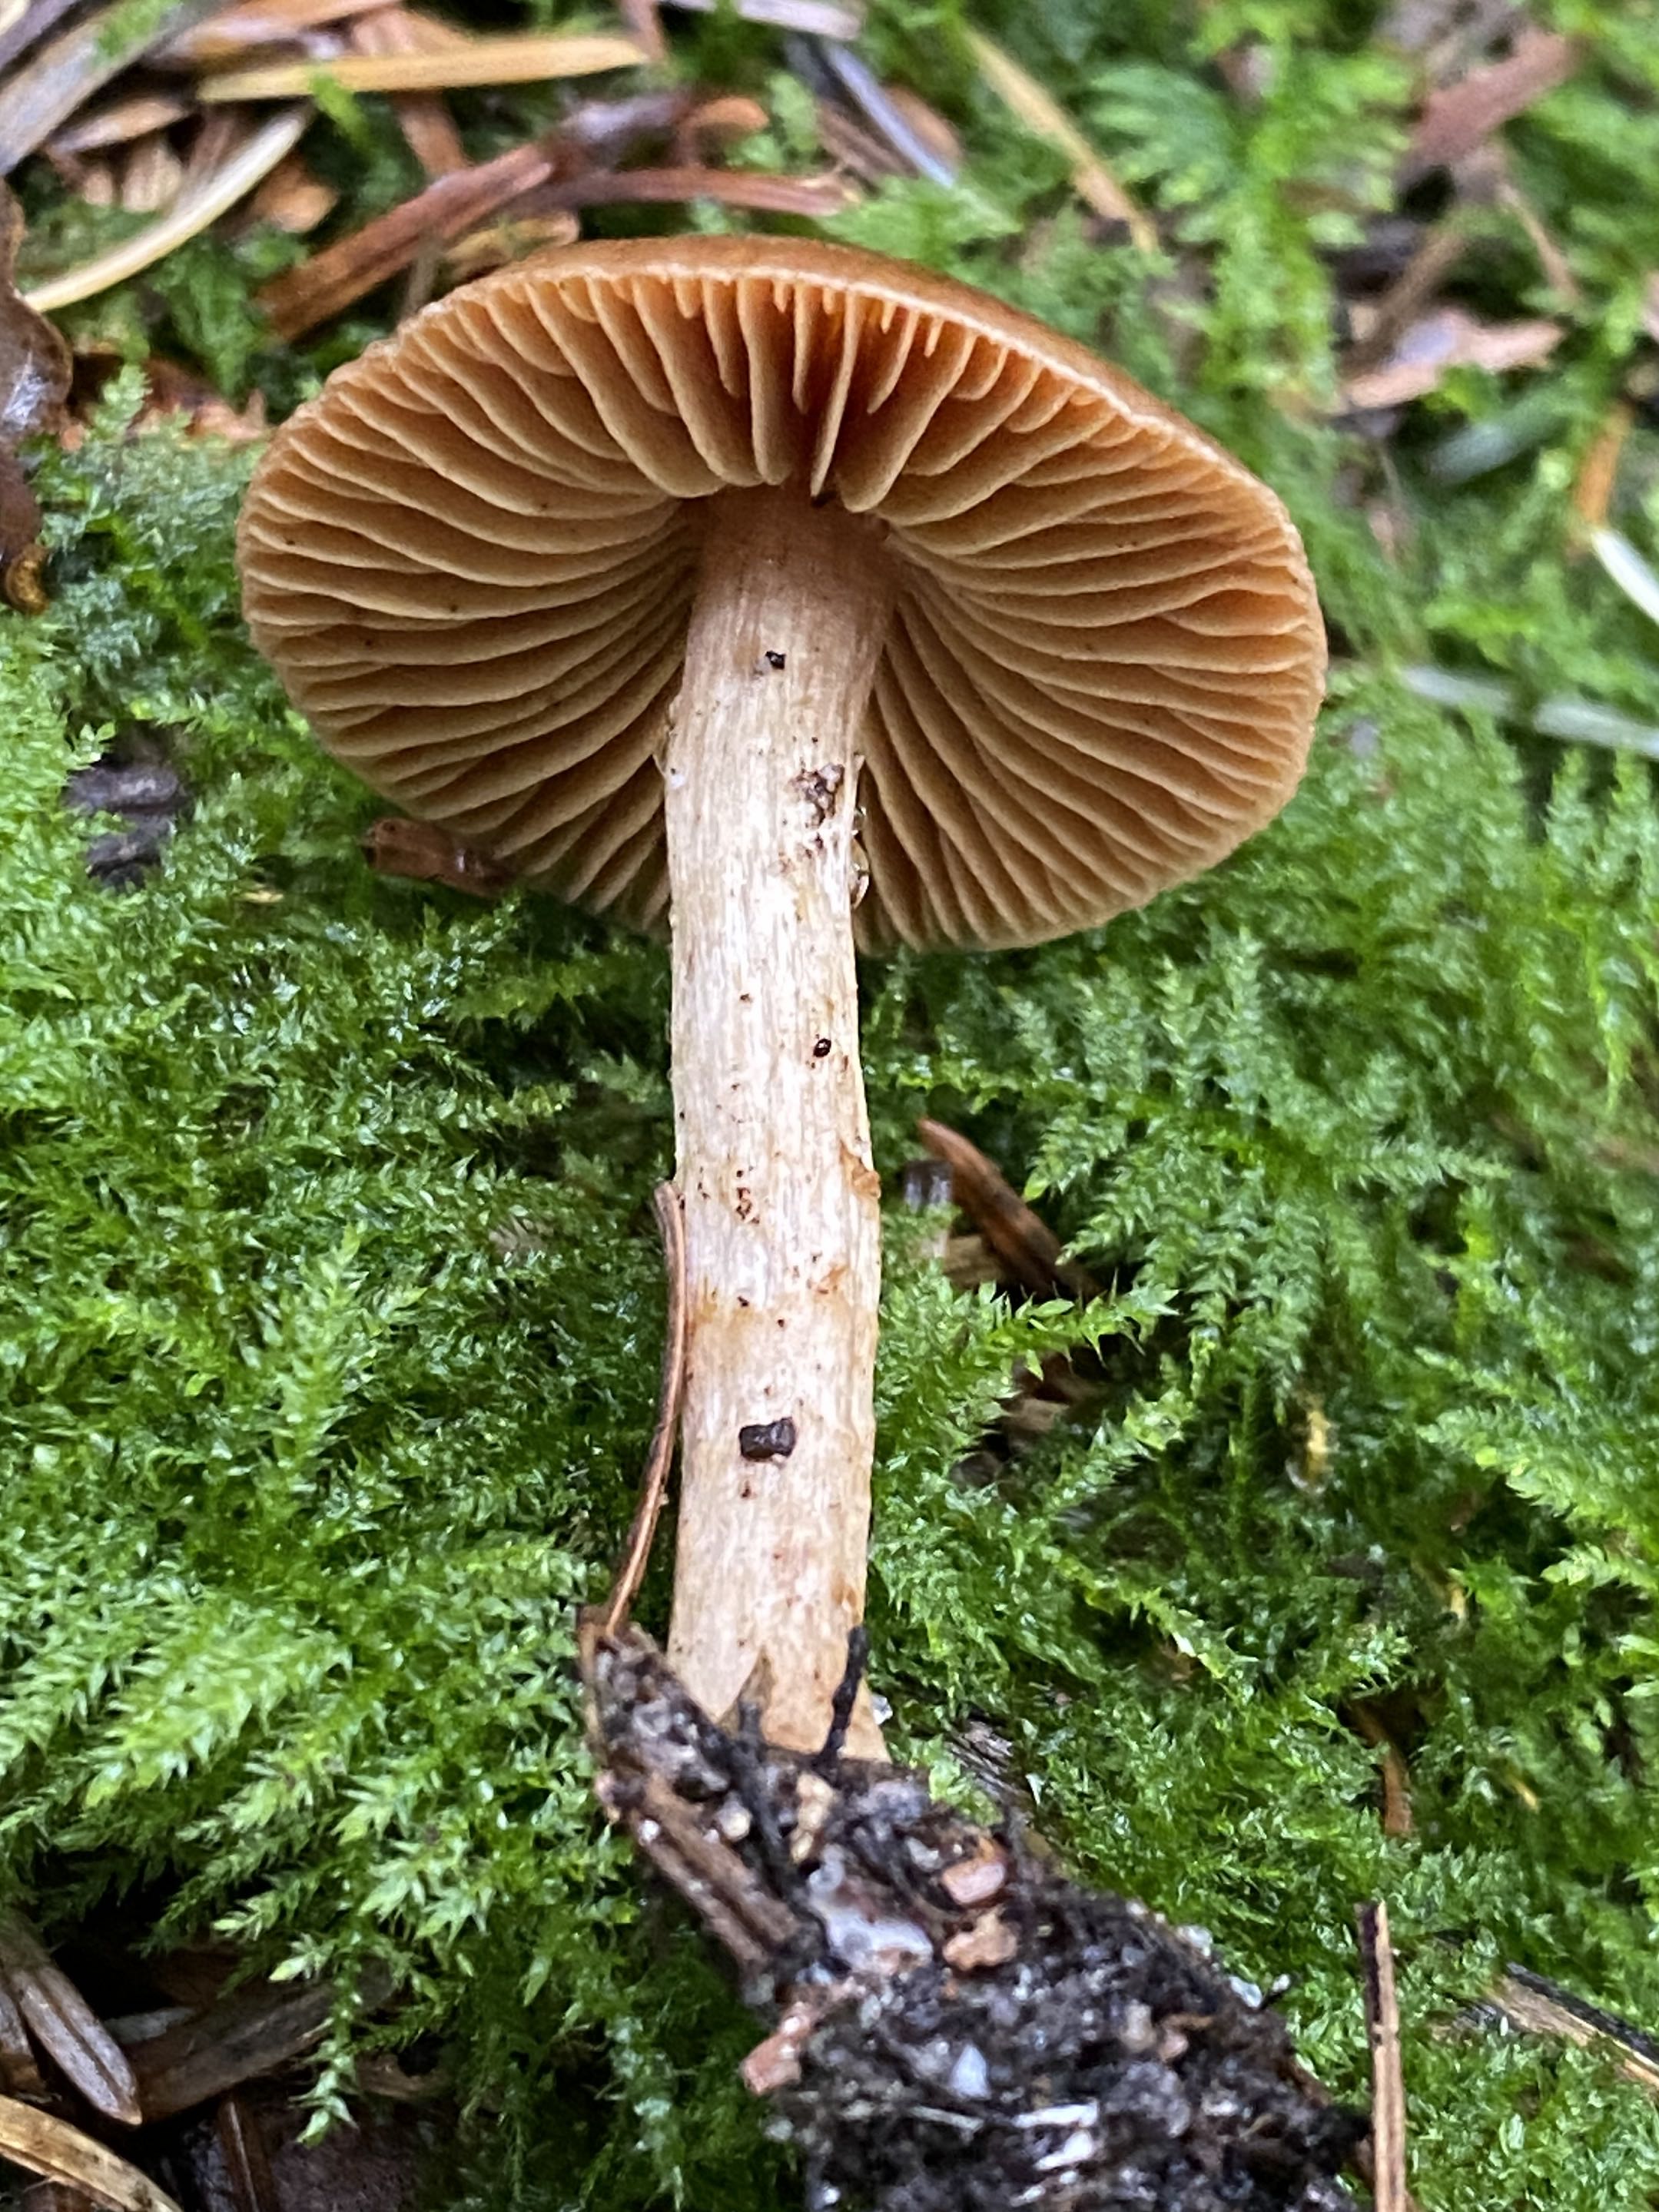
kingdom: Fungi
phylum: Basidiomycota
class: Agaricomycetes
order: Agaricales
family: Cortinariaceae
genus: Cortinarius
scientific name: Cortinarius
